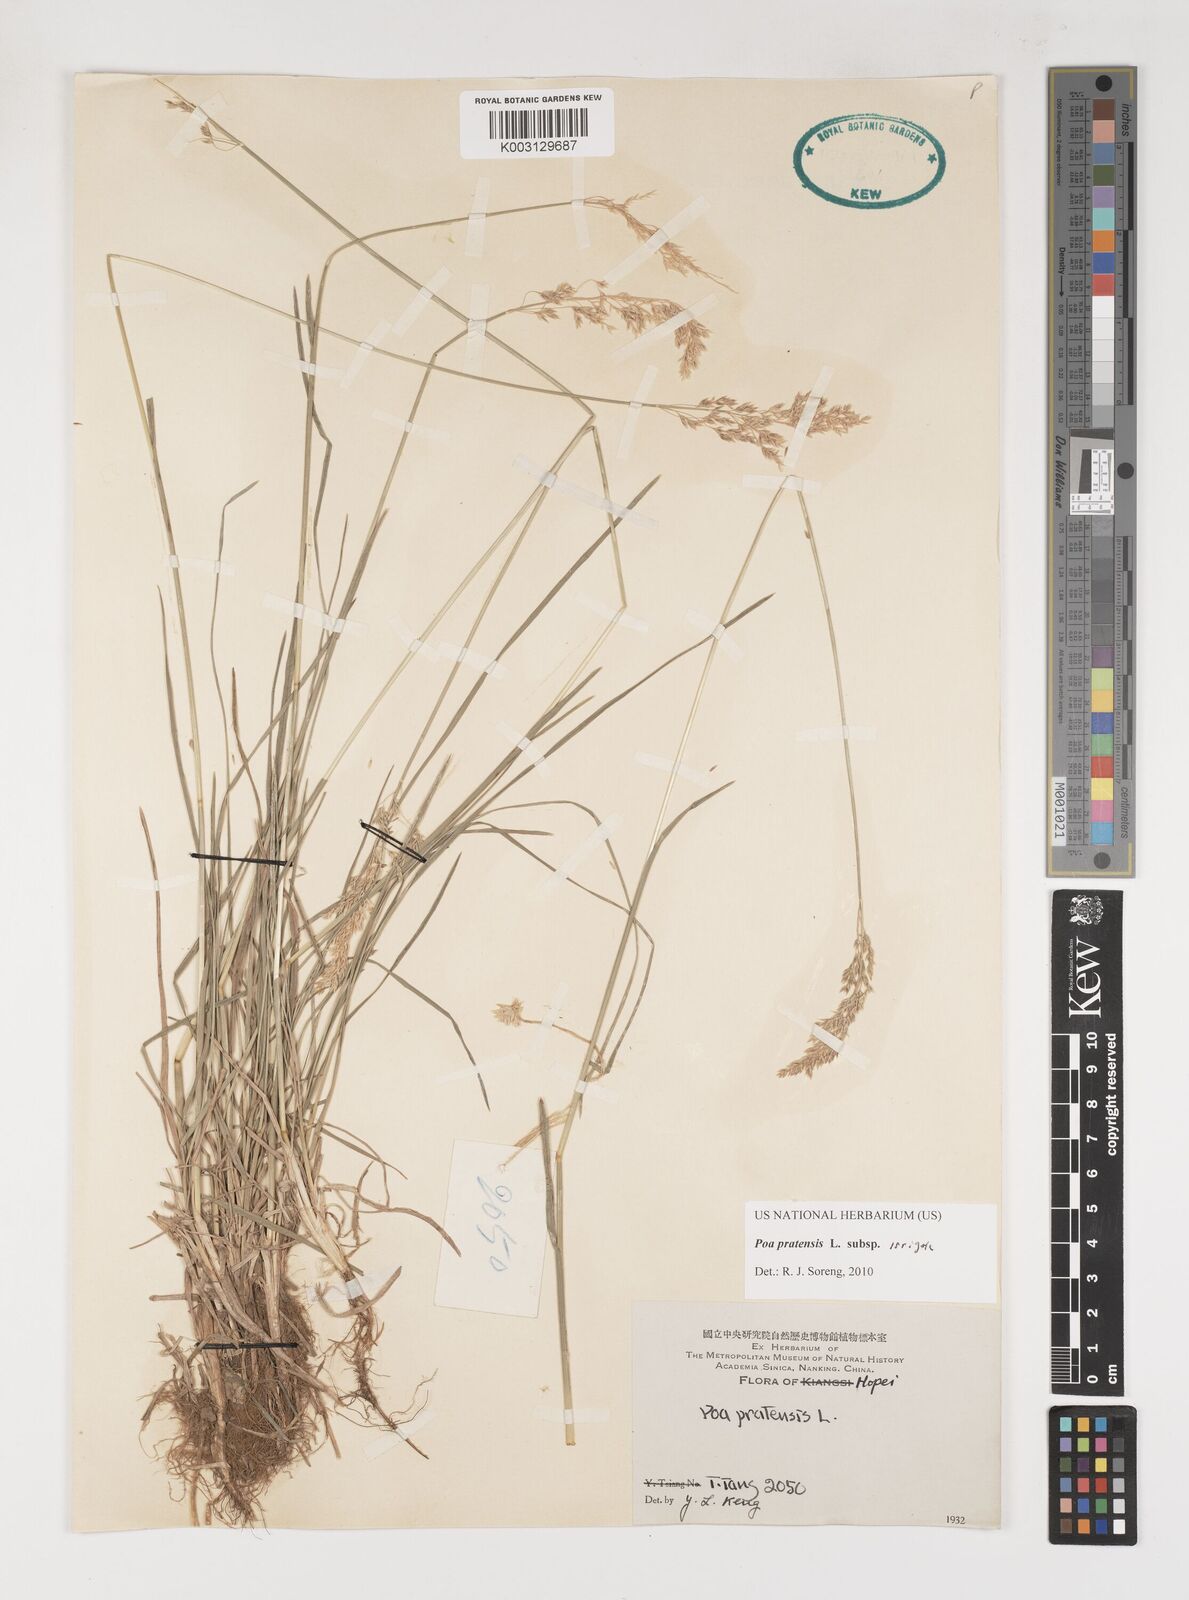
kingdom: Plantae
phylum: Tracheophyta
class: Liliopsida
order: Poales
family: Poaceae
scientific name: Poaceae
